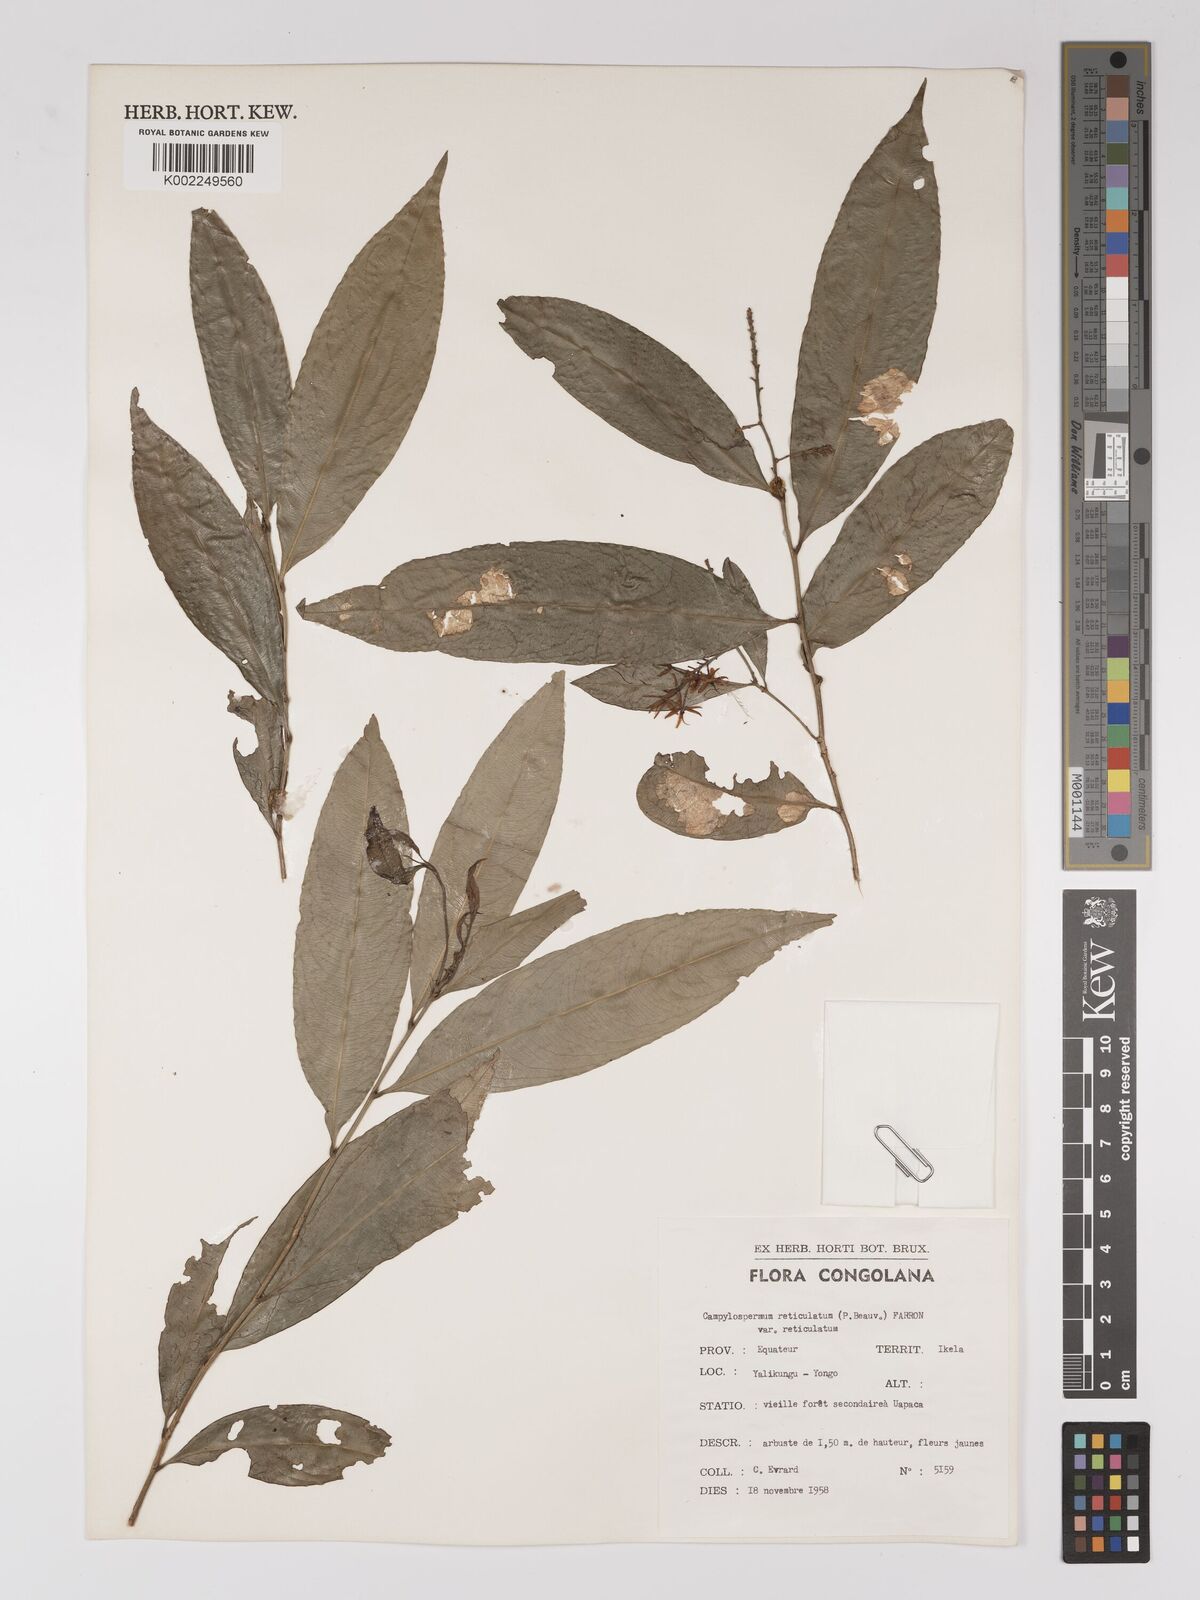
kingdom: Plantae
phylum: Tracheophyta
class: Magnoliopsida
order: Malpighiales
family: Ochnaceae
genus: Campylospermum
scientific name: Campylospermum reticulatum
